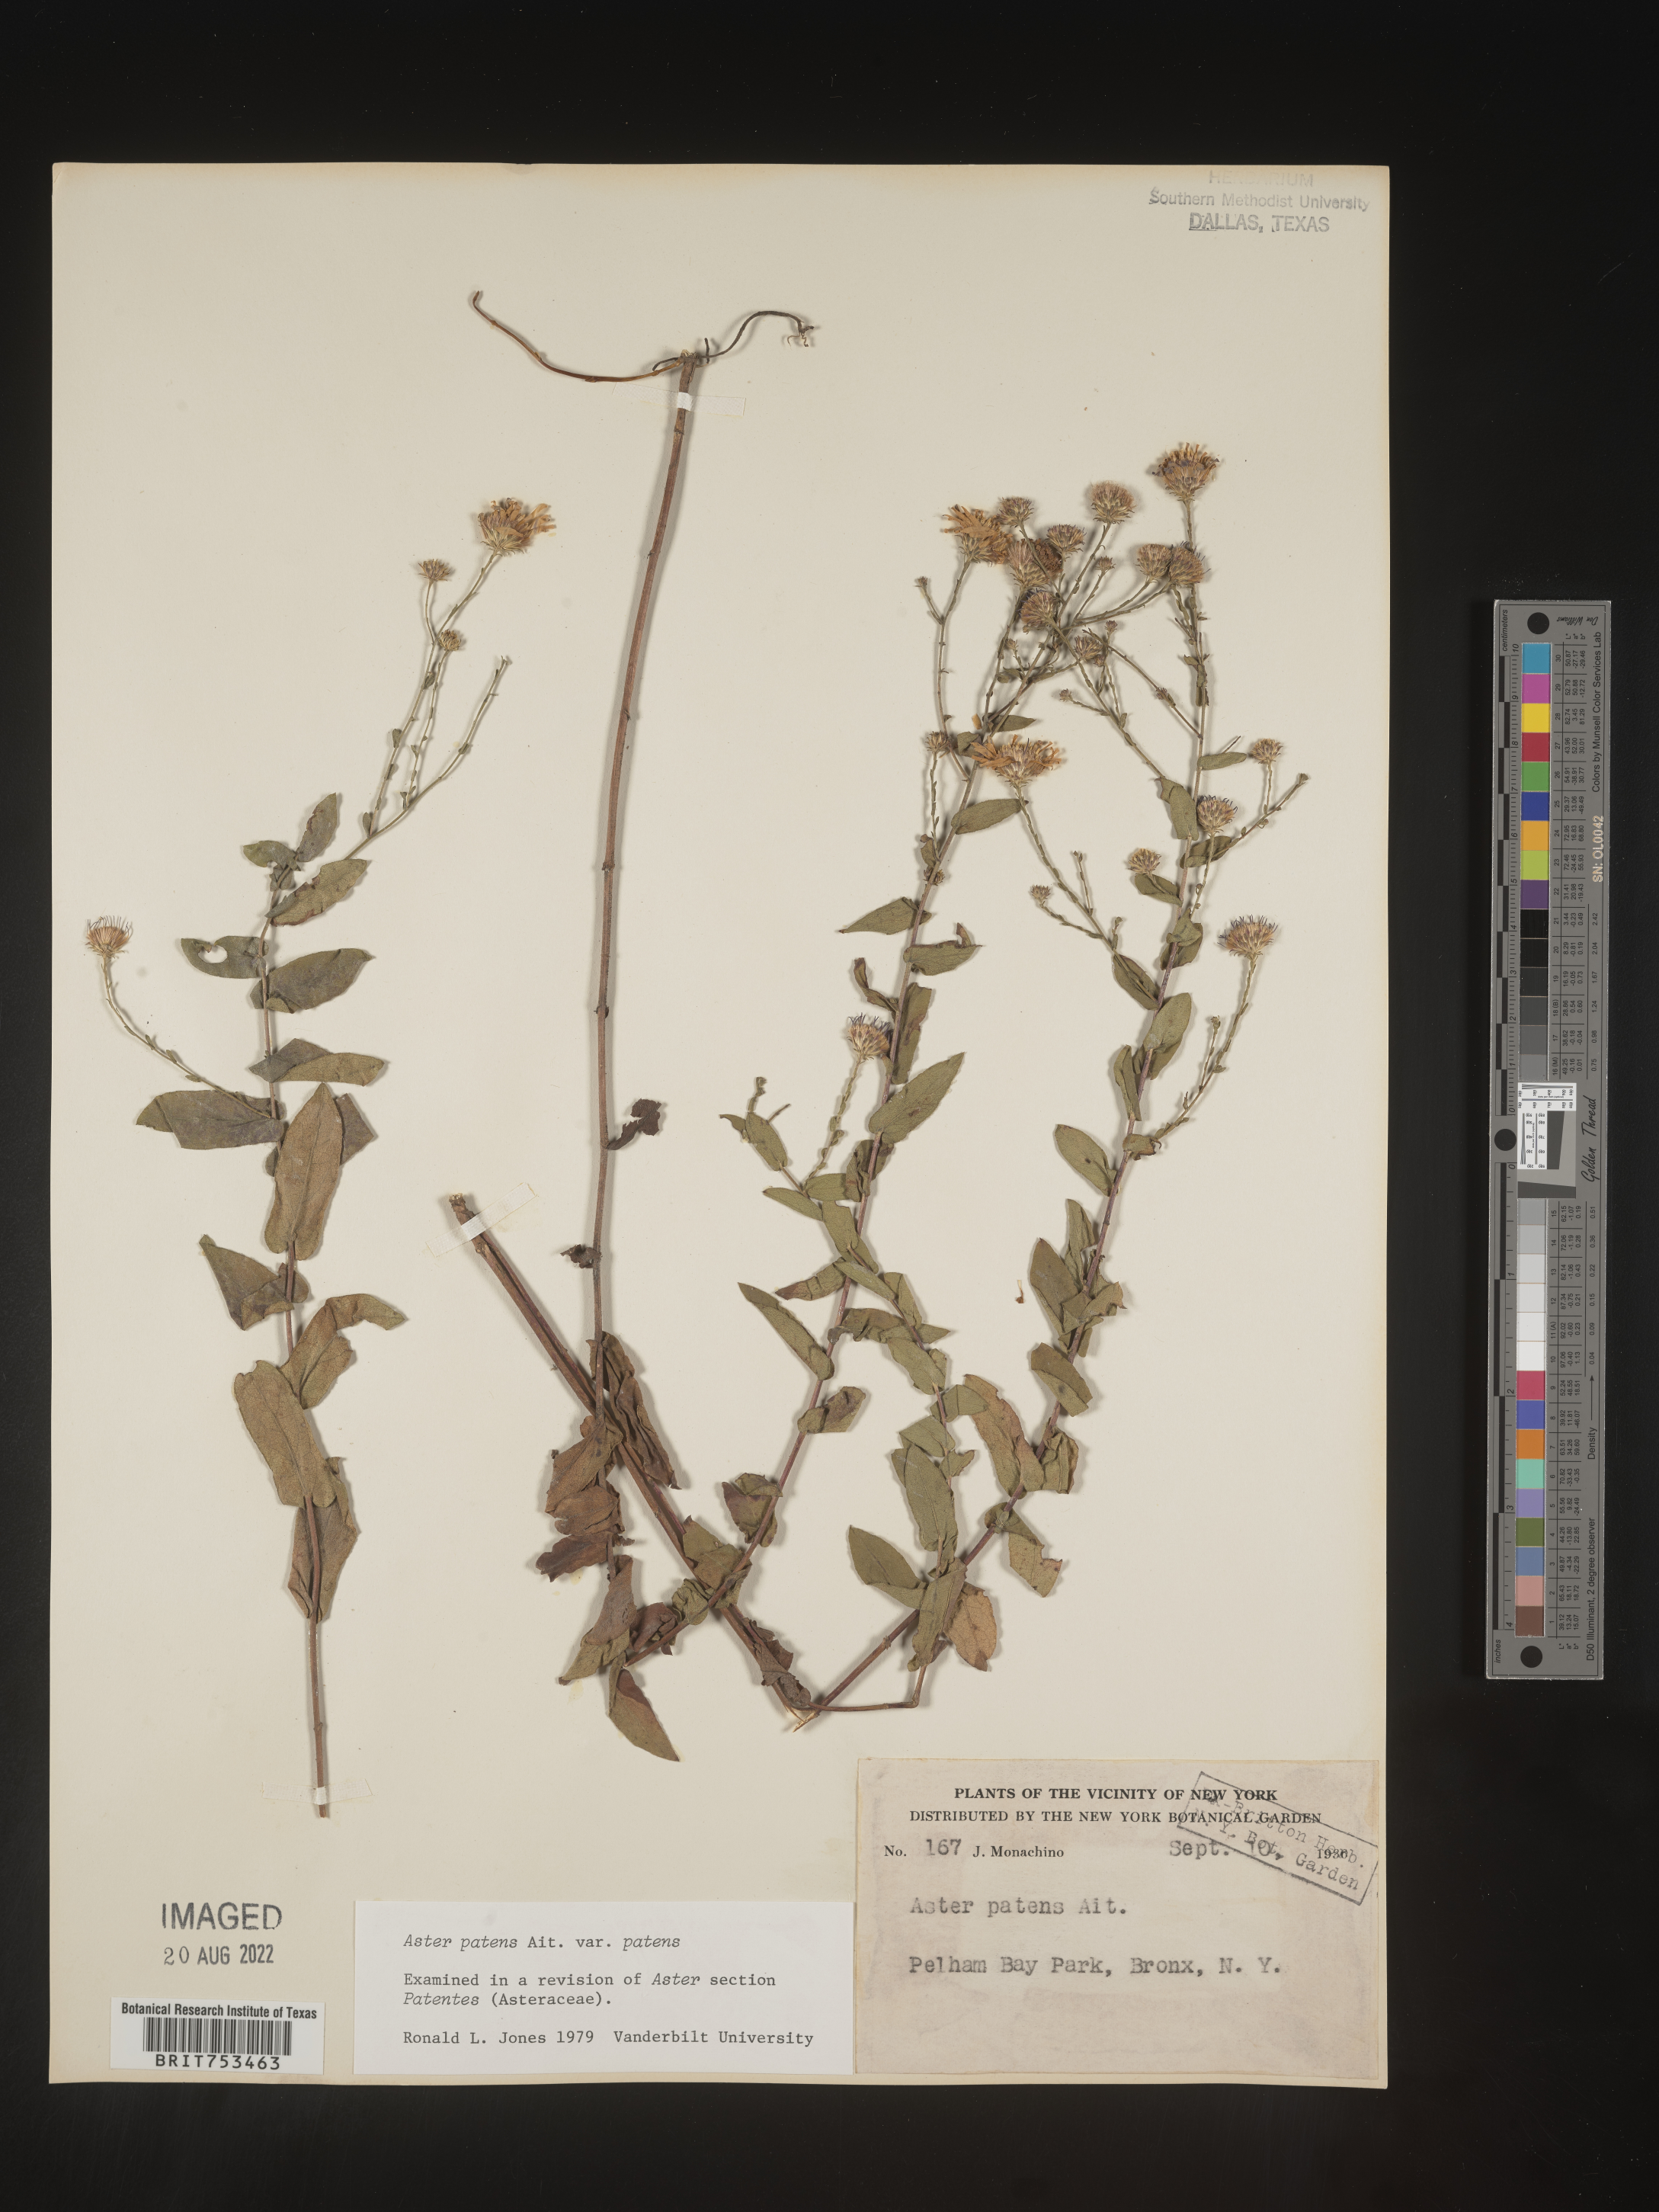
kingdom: Plantae
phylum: Tracheophyta
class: Magnoliopsida
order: Asterales
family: Asteraceae
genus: Symphyotrichum
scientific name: Symphyotrichum patens
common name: Late purple aster
